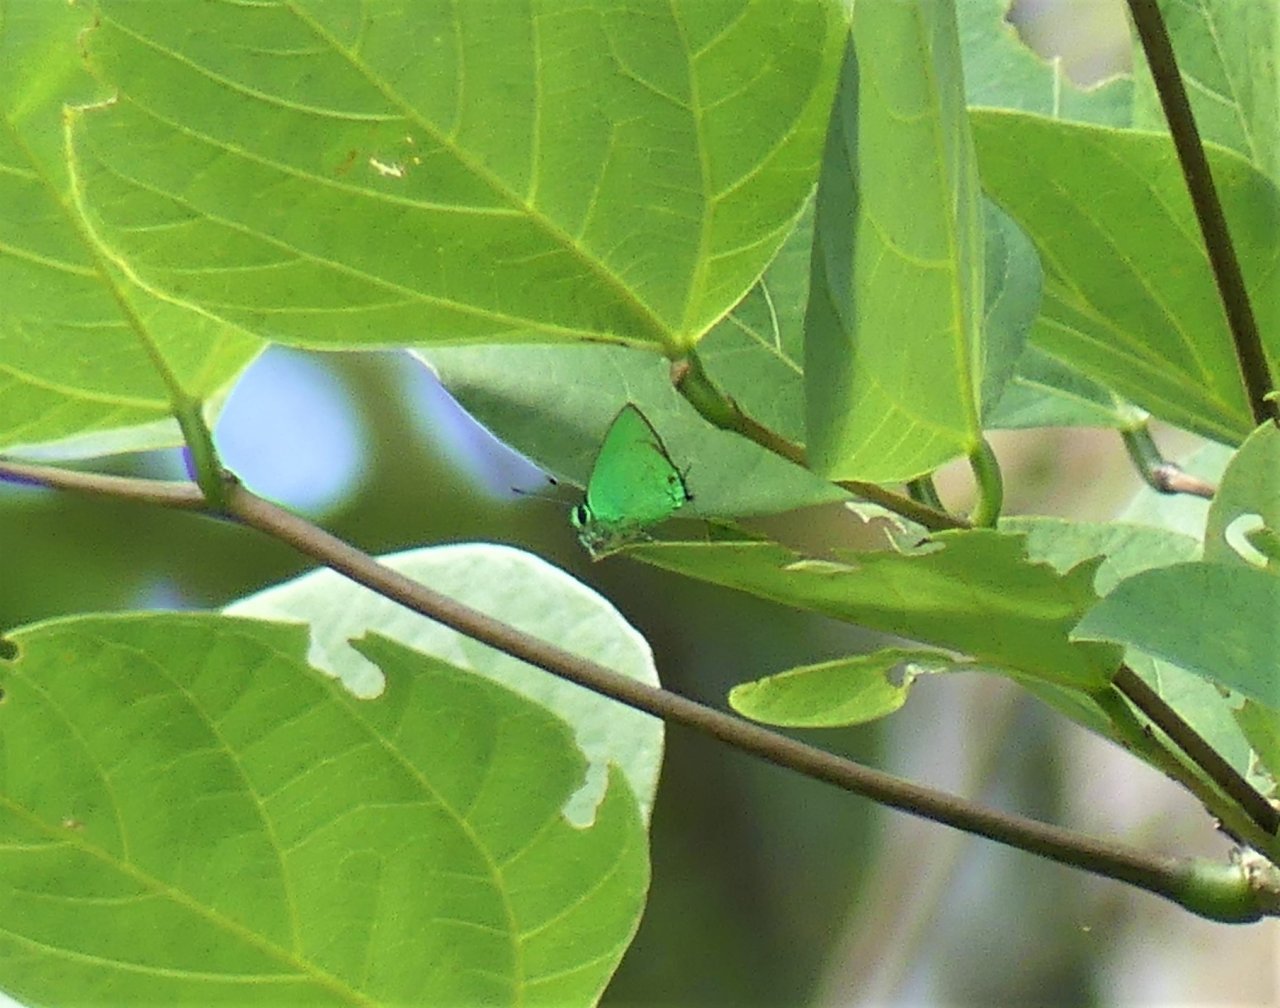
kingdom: Animalia
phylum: Arthropoda
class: Insecta
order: Lepidoptera
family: Lycaenidae
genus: Chalybs
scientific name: Chalybs janias
